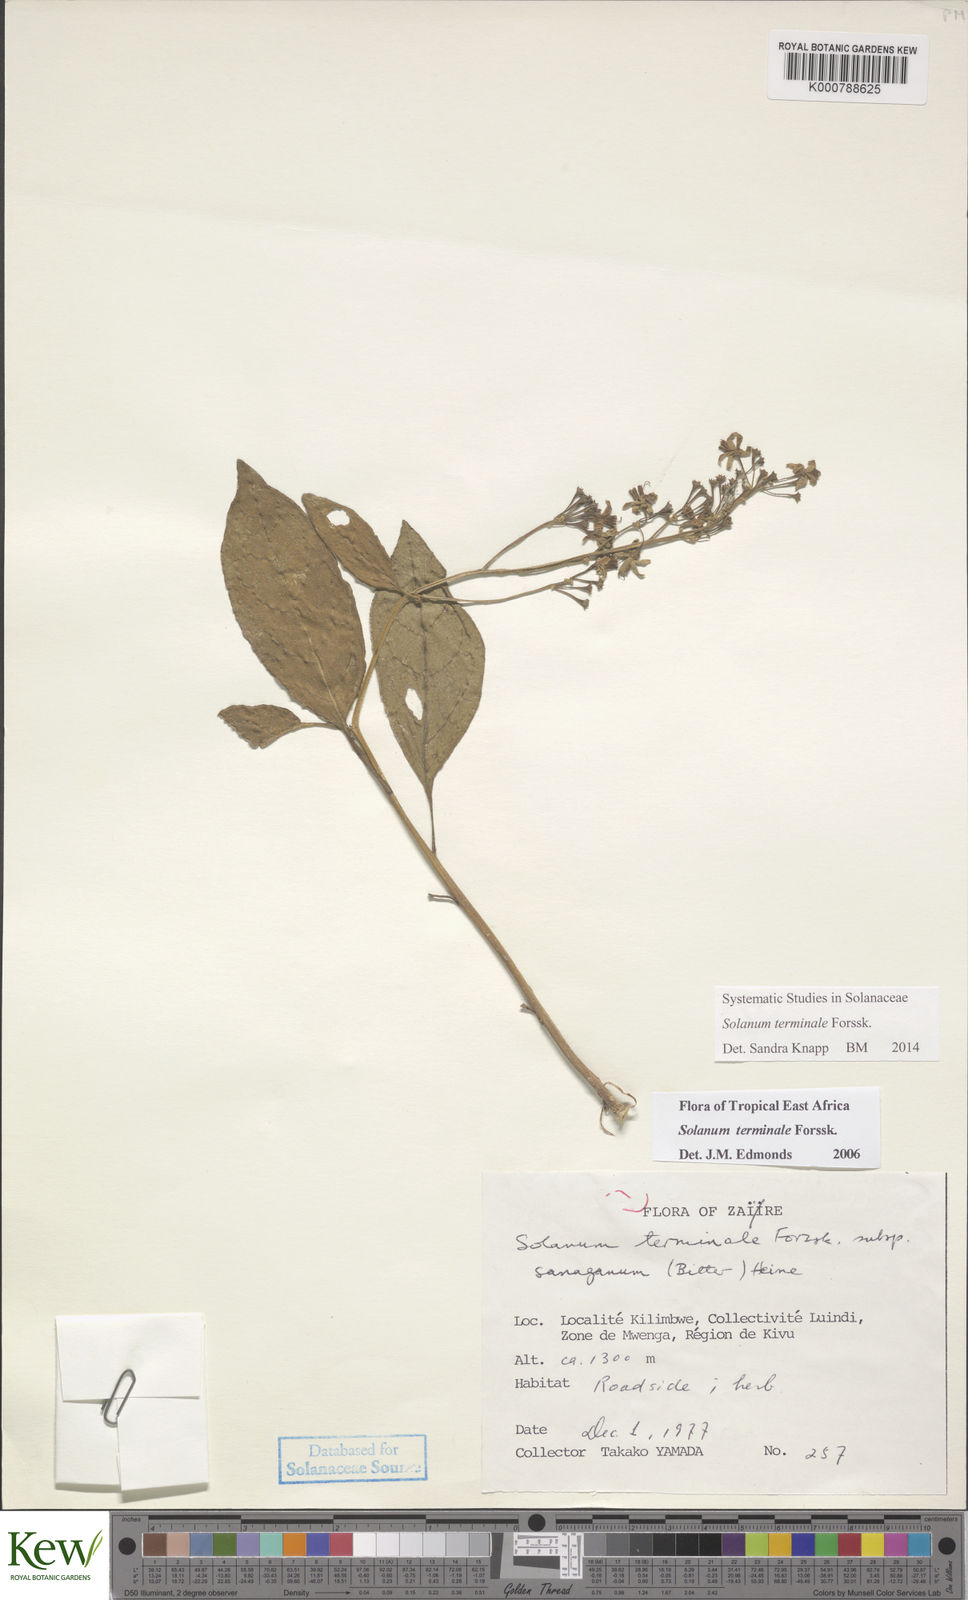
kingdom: Plantae
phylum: Tracheophyta
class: Magnoliopsida
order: Solanales
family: Solanaceae
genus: Solanum
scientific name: Solanum terminale
